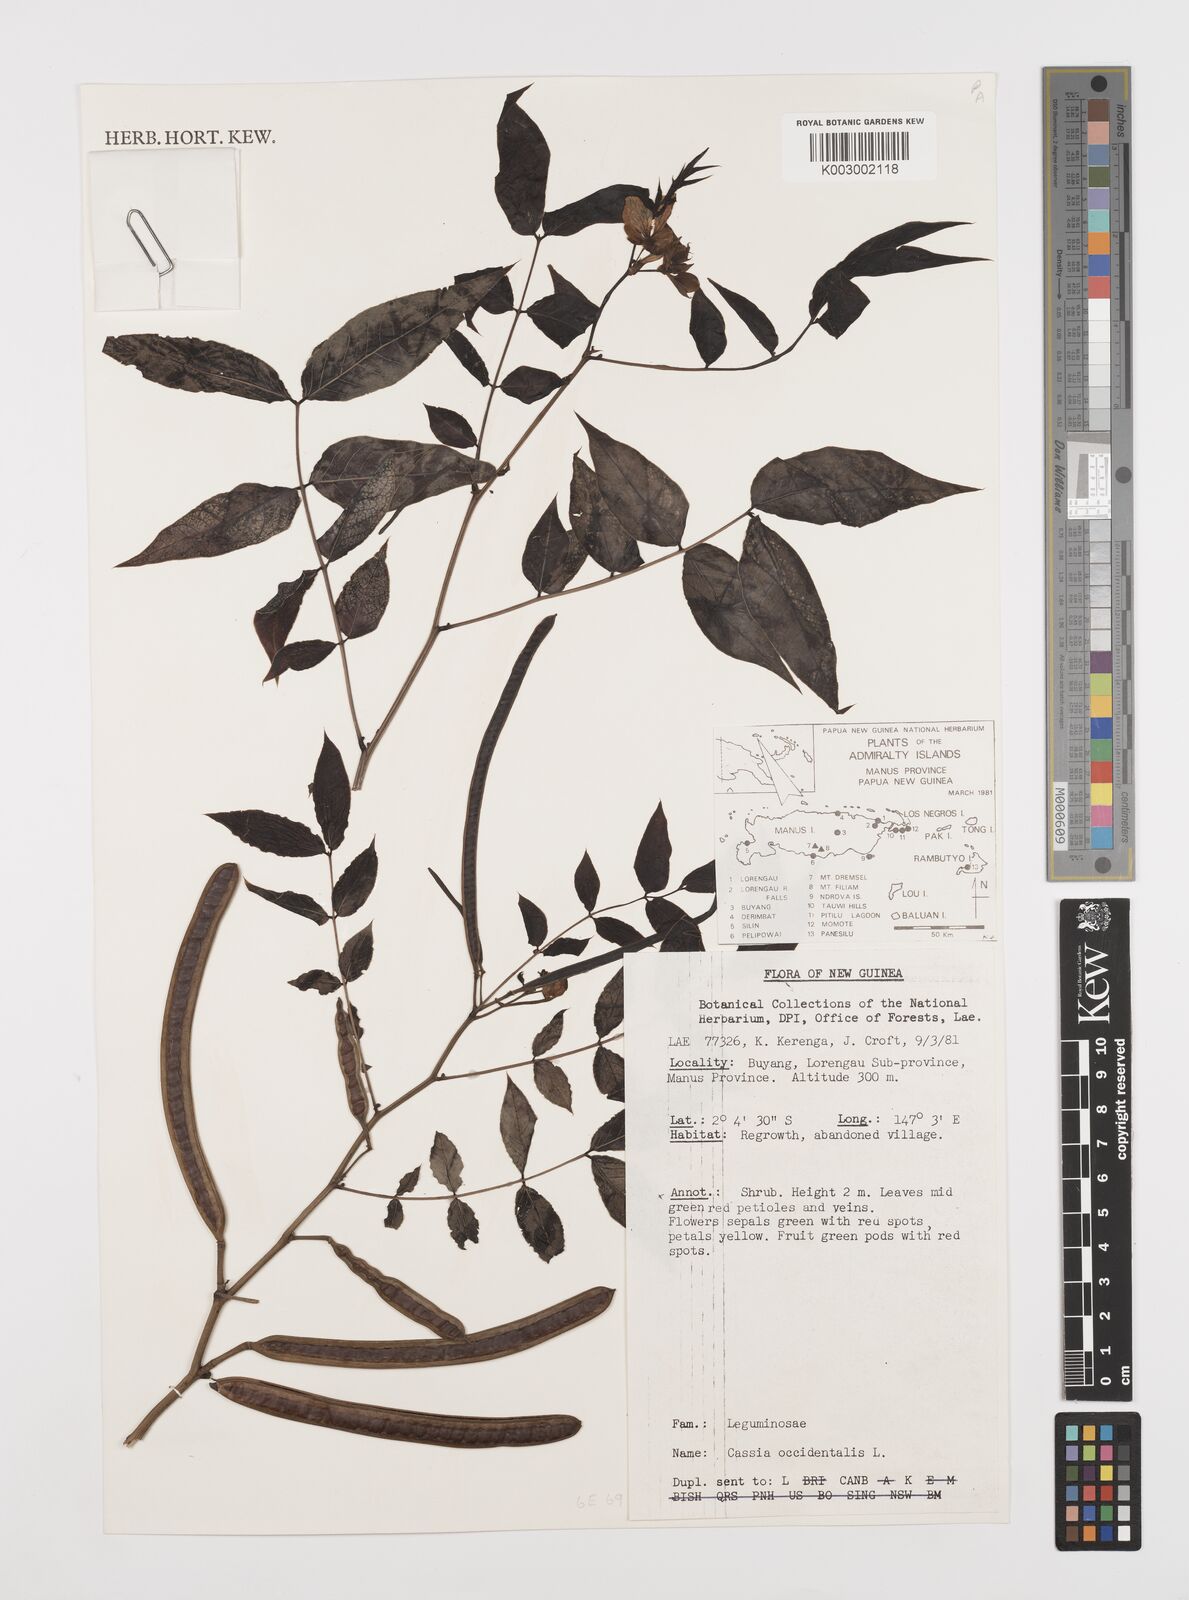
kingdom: Plantae
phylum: Tracheophyta
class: Magnoliopsida
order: Fabales
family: Fabaceae
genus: Senna
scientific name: Senna occidentalis
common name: Septicweed
